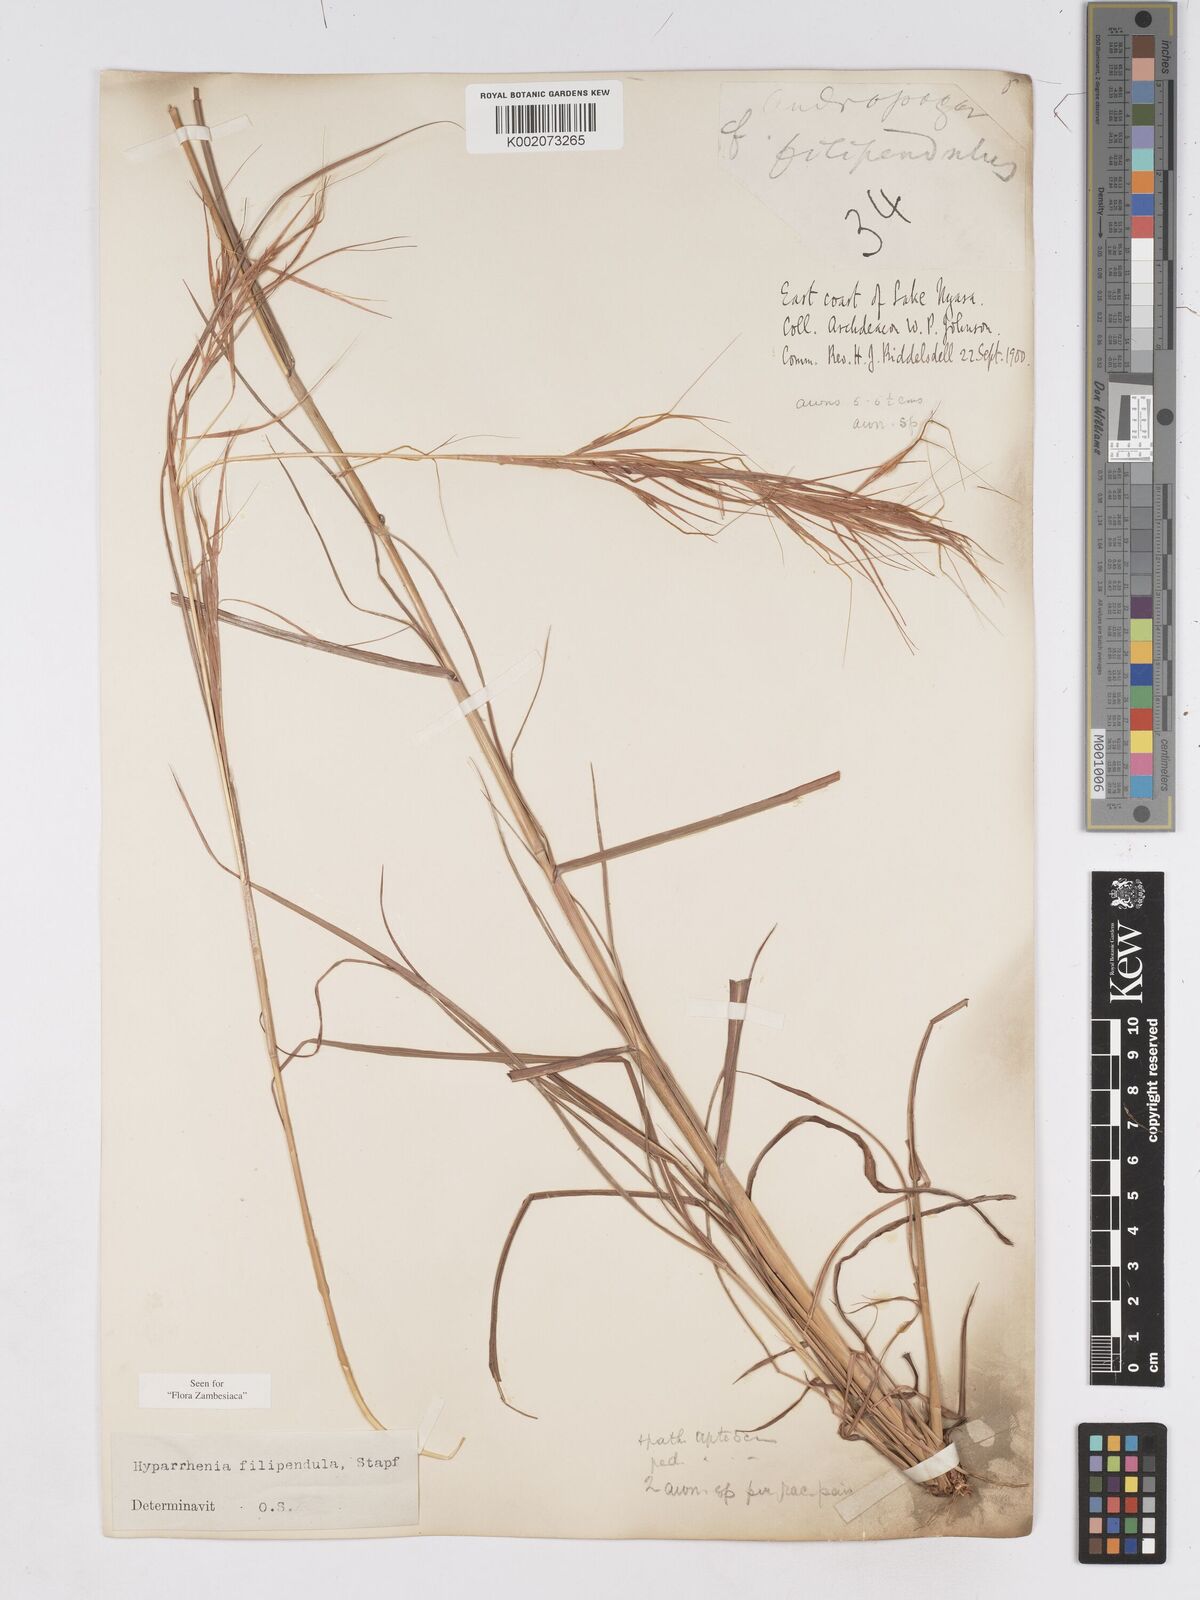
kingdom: Plantae
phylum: Tracheophyta
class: Liliopsida
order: Poales
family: Poaceae
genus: Hyparrhenia
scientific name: Hyparrhenia filipendula
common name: Tambookie grass
